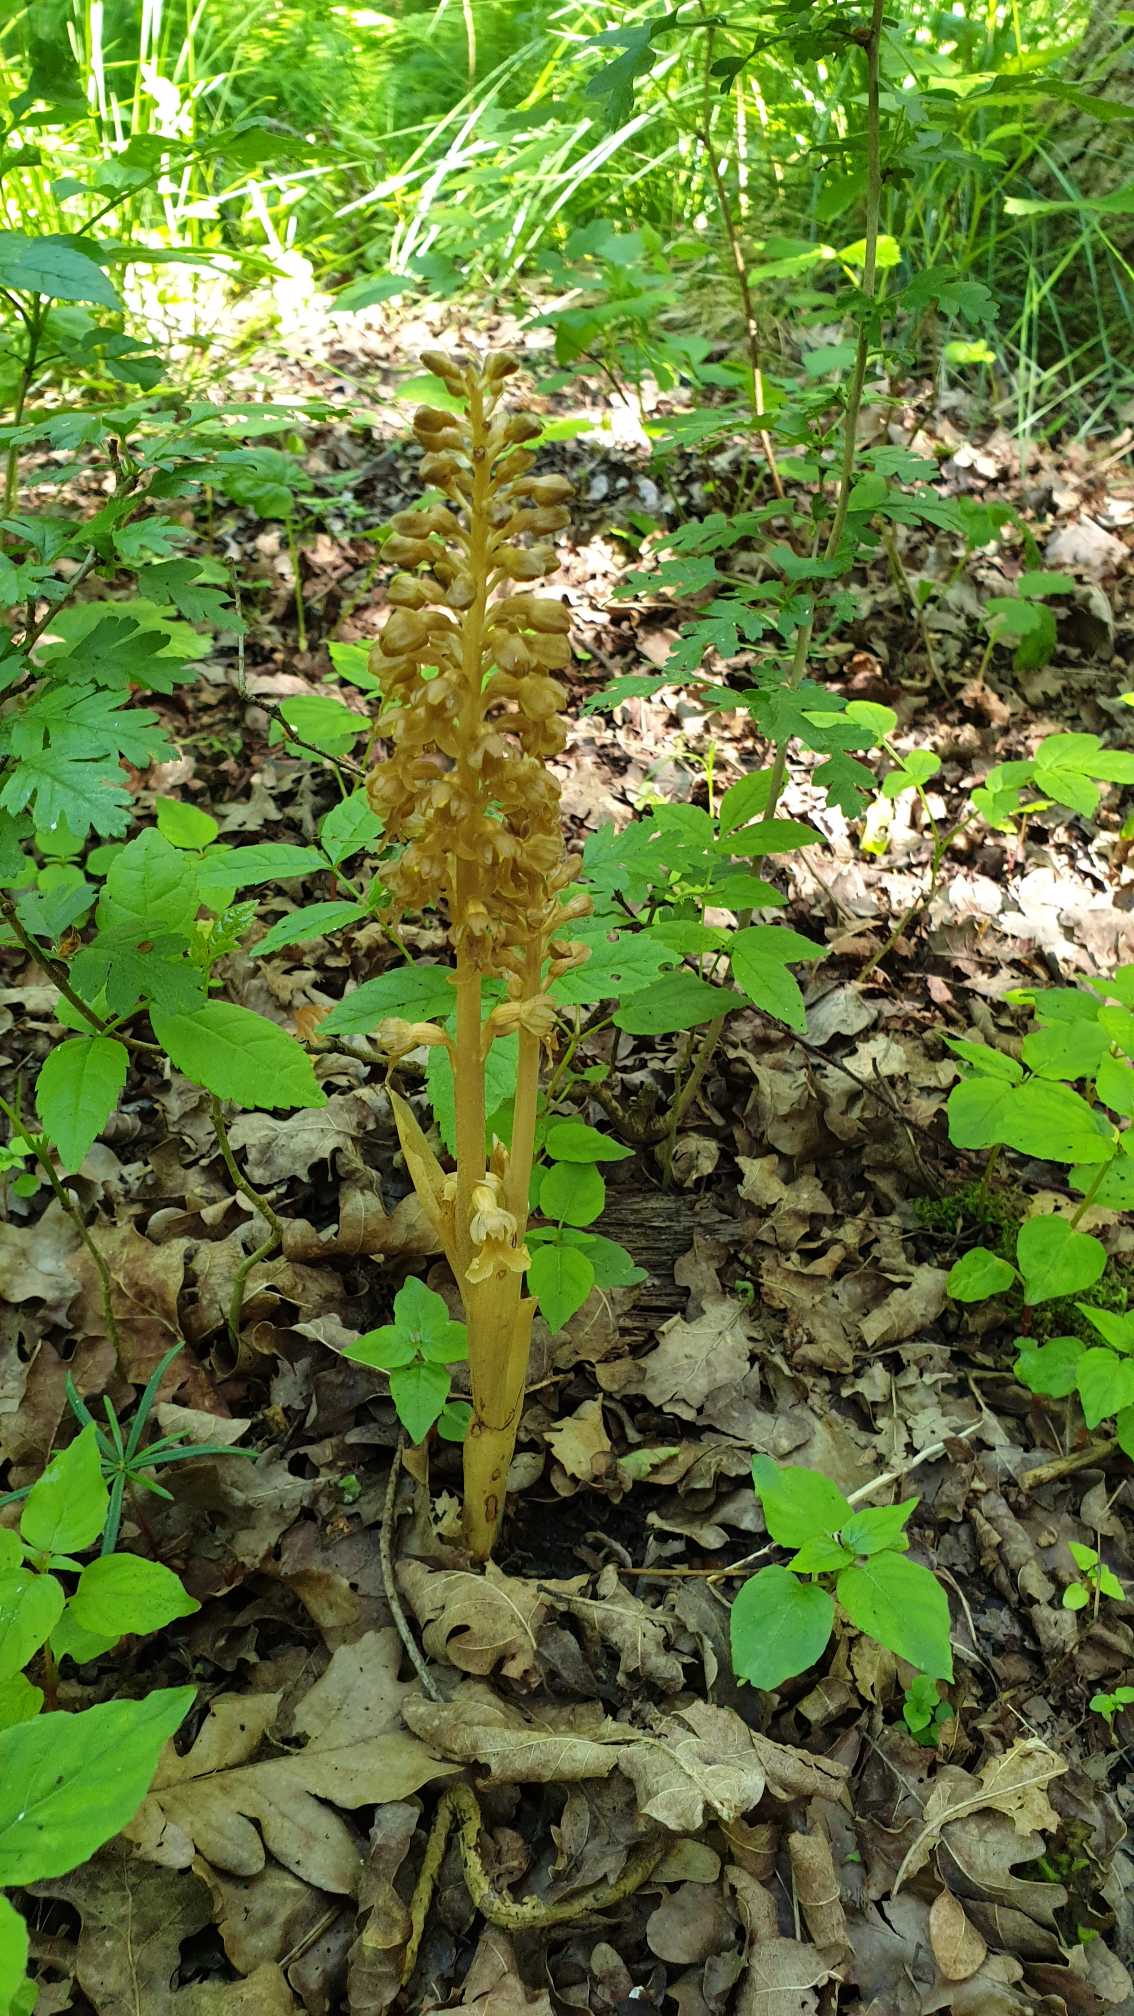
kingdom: Plantae
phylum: Tracheophyta
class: Liliopsida
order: Asparagales
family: Orchidaceae
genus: Neottia
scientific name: Neottia nidus-avis
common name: Rederod
